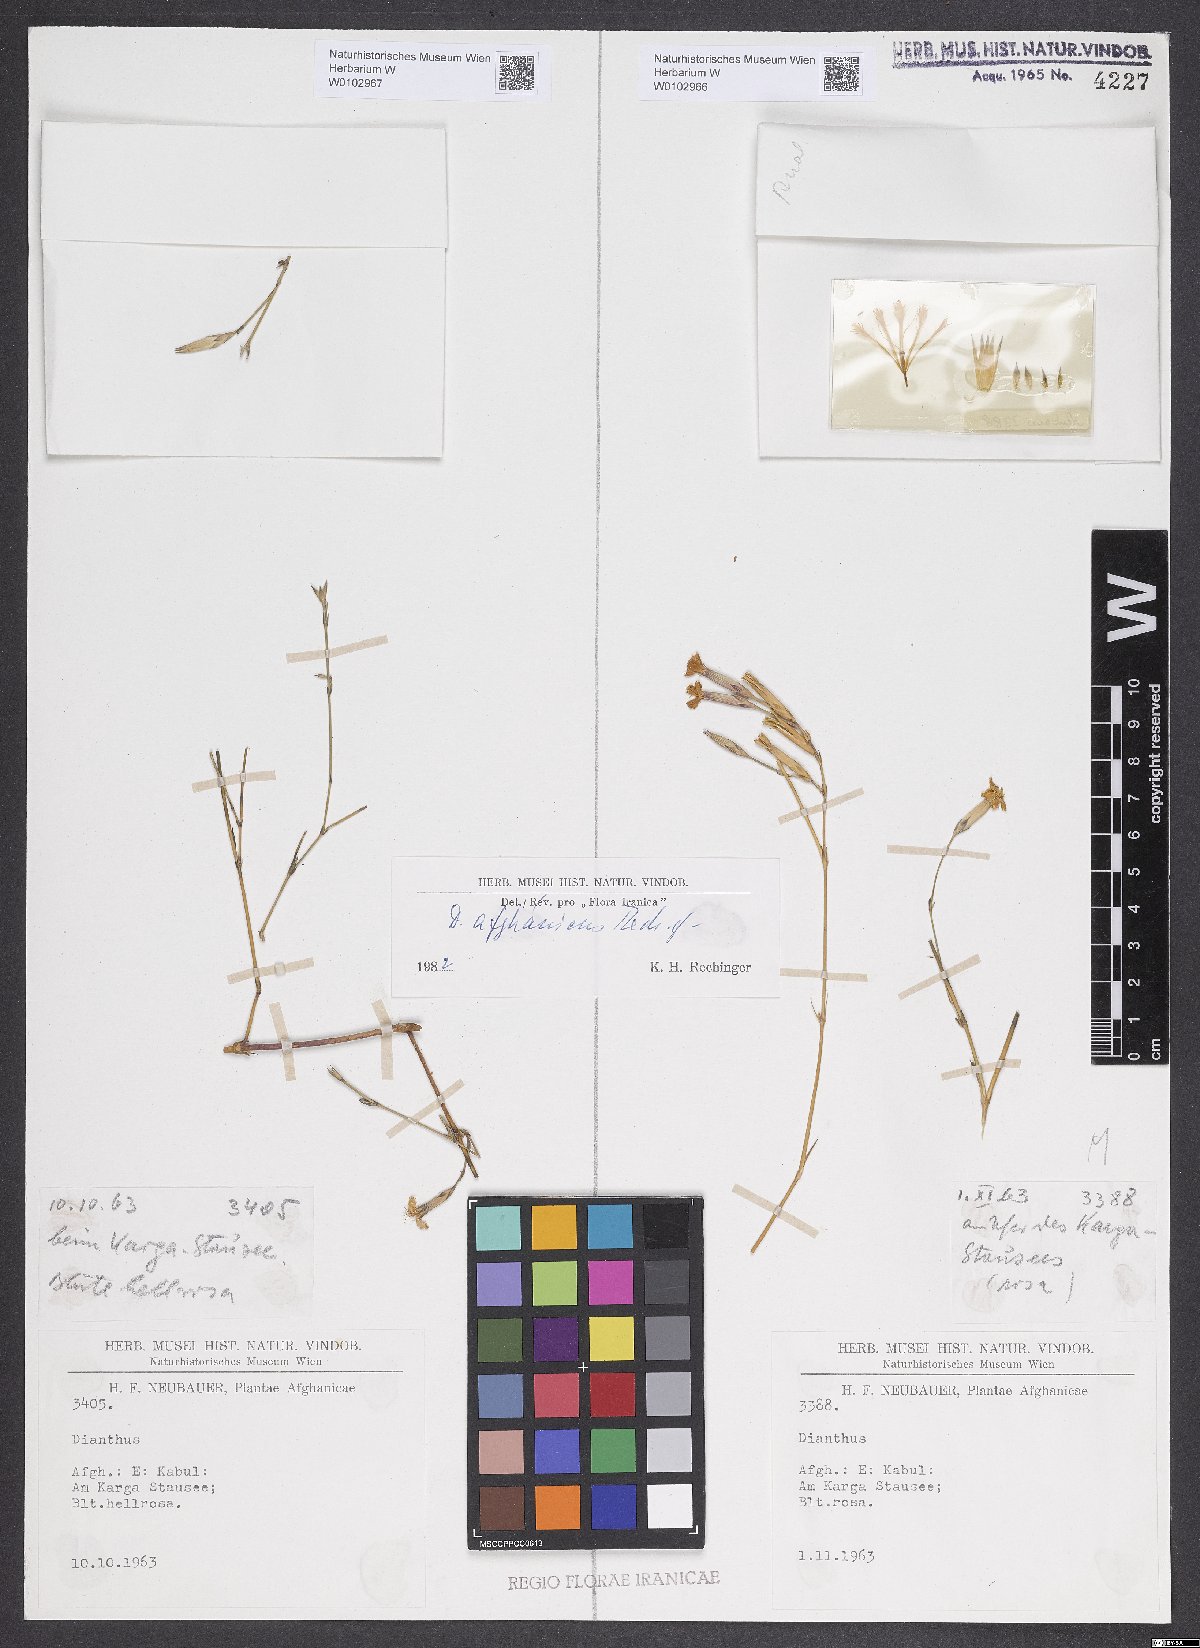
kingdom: Plantae
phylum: Tracheophyta
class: Magnoliopsida
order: Caryophyllales
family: Caryophyllaceae
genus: Dianthus
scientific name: Dianthus afghanicus
